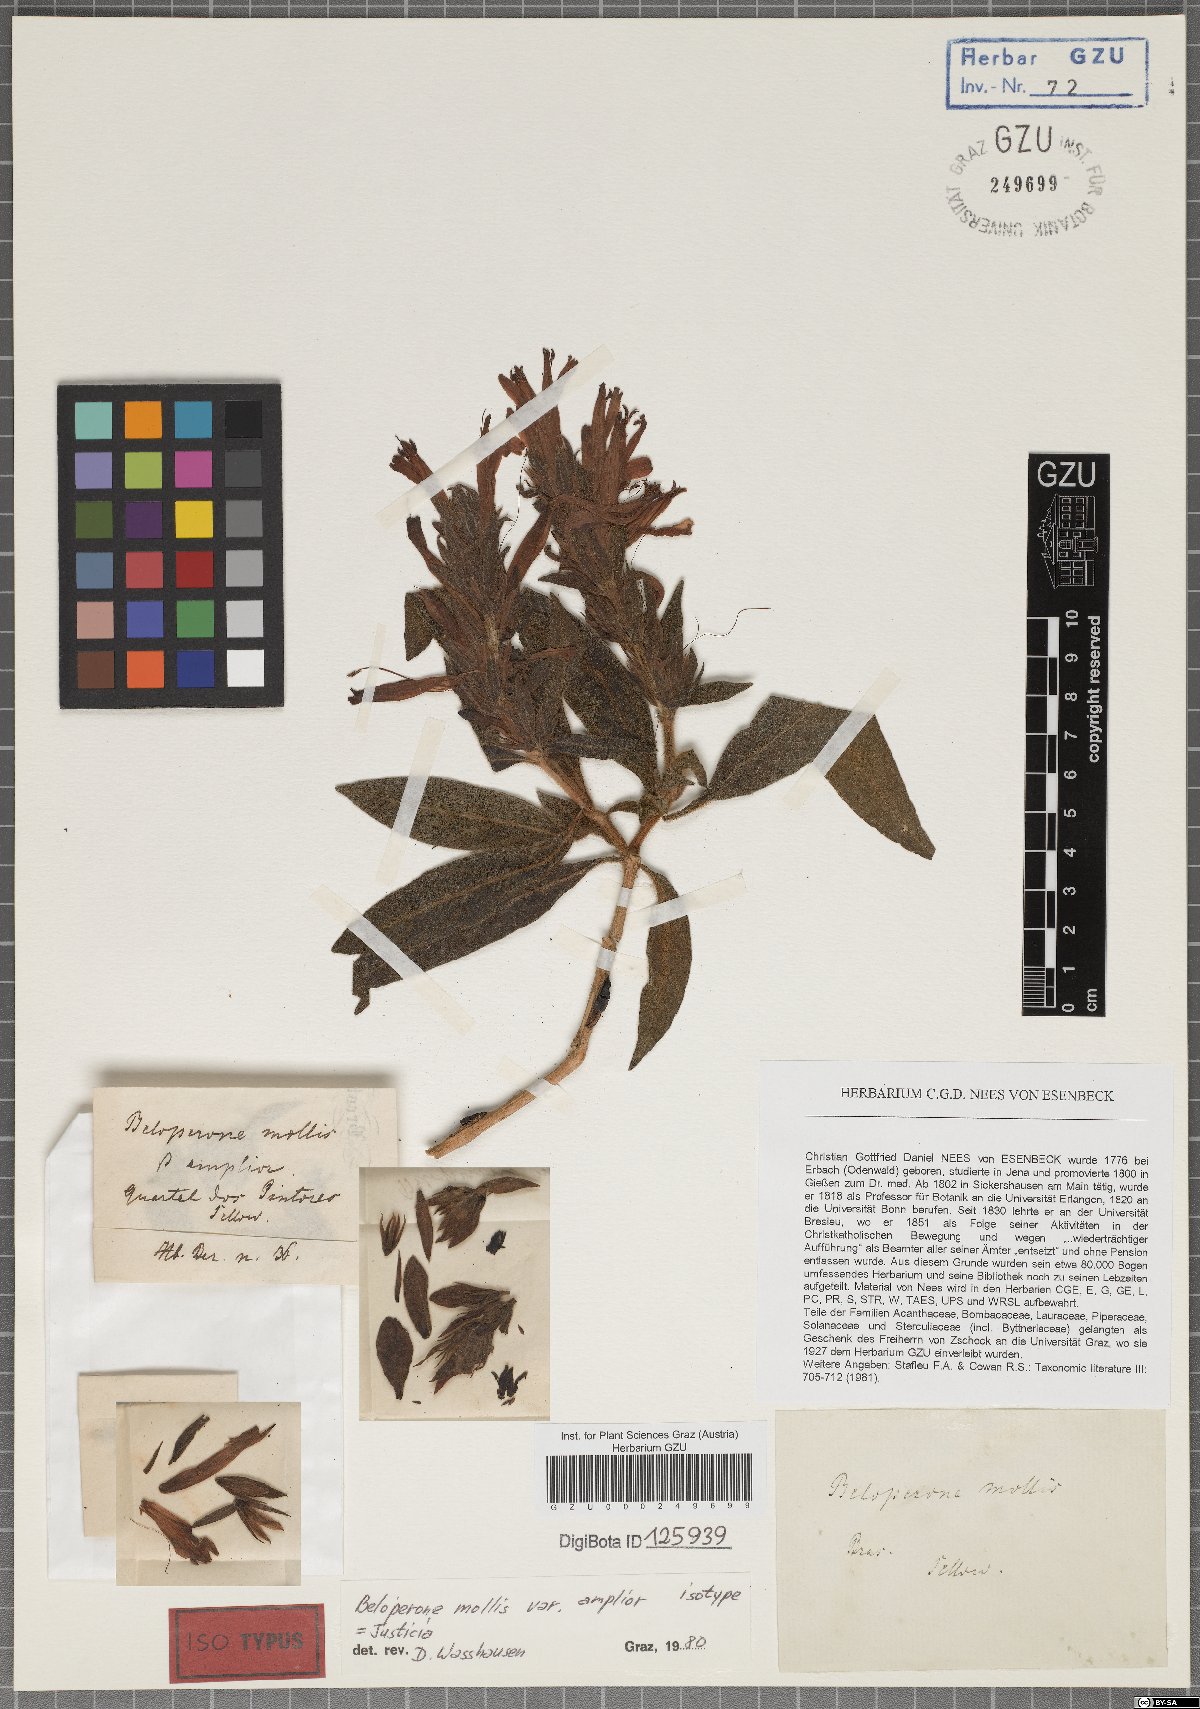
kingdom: Plantae
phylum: Tracheophyta
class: Magnoliopsida
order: Lamiales
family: Acanthaceae
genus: Justicia
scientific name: Justicia riparia
